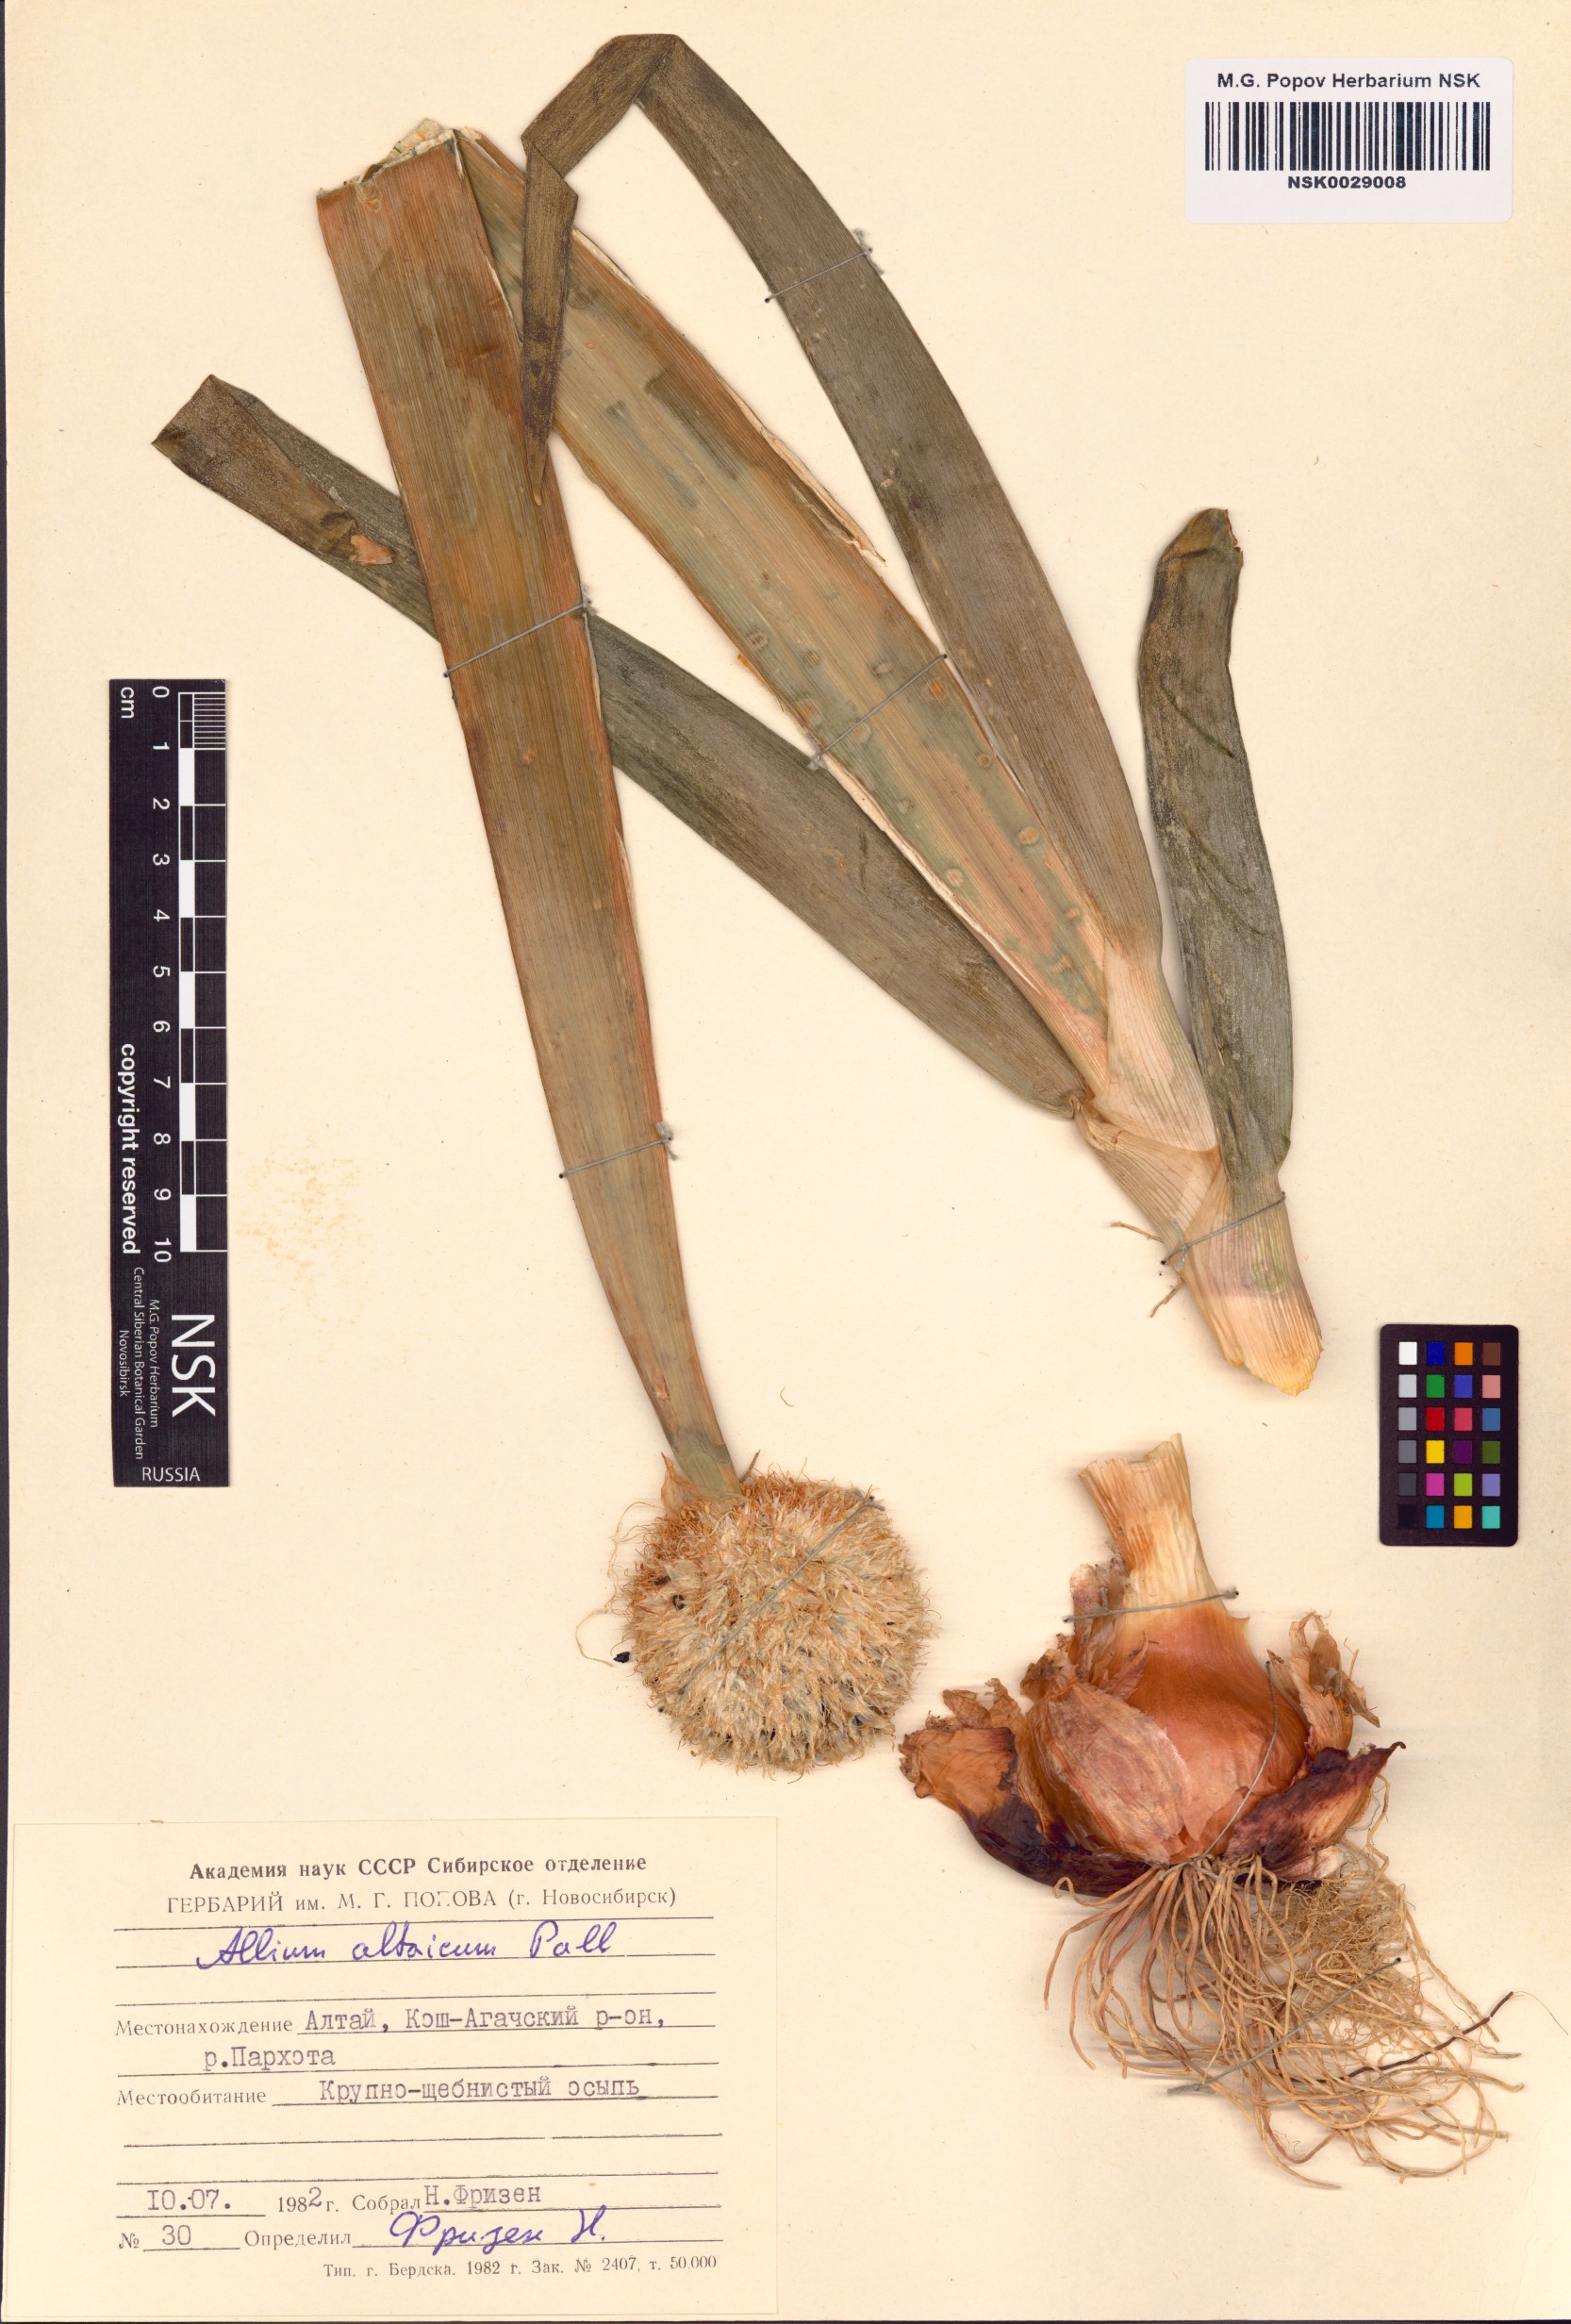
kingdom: Plantae
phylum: Tracheophyta
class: Liliopsida
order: Asparagales
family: Amaryllidaceae
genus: Allium
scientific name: Allium altaicum
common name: Altai onion
